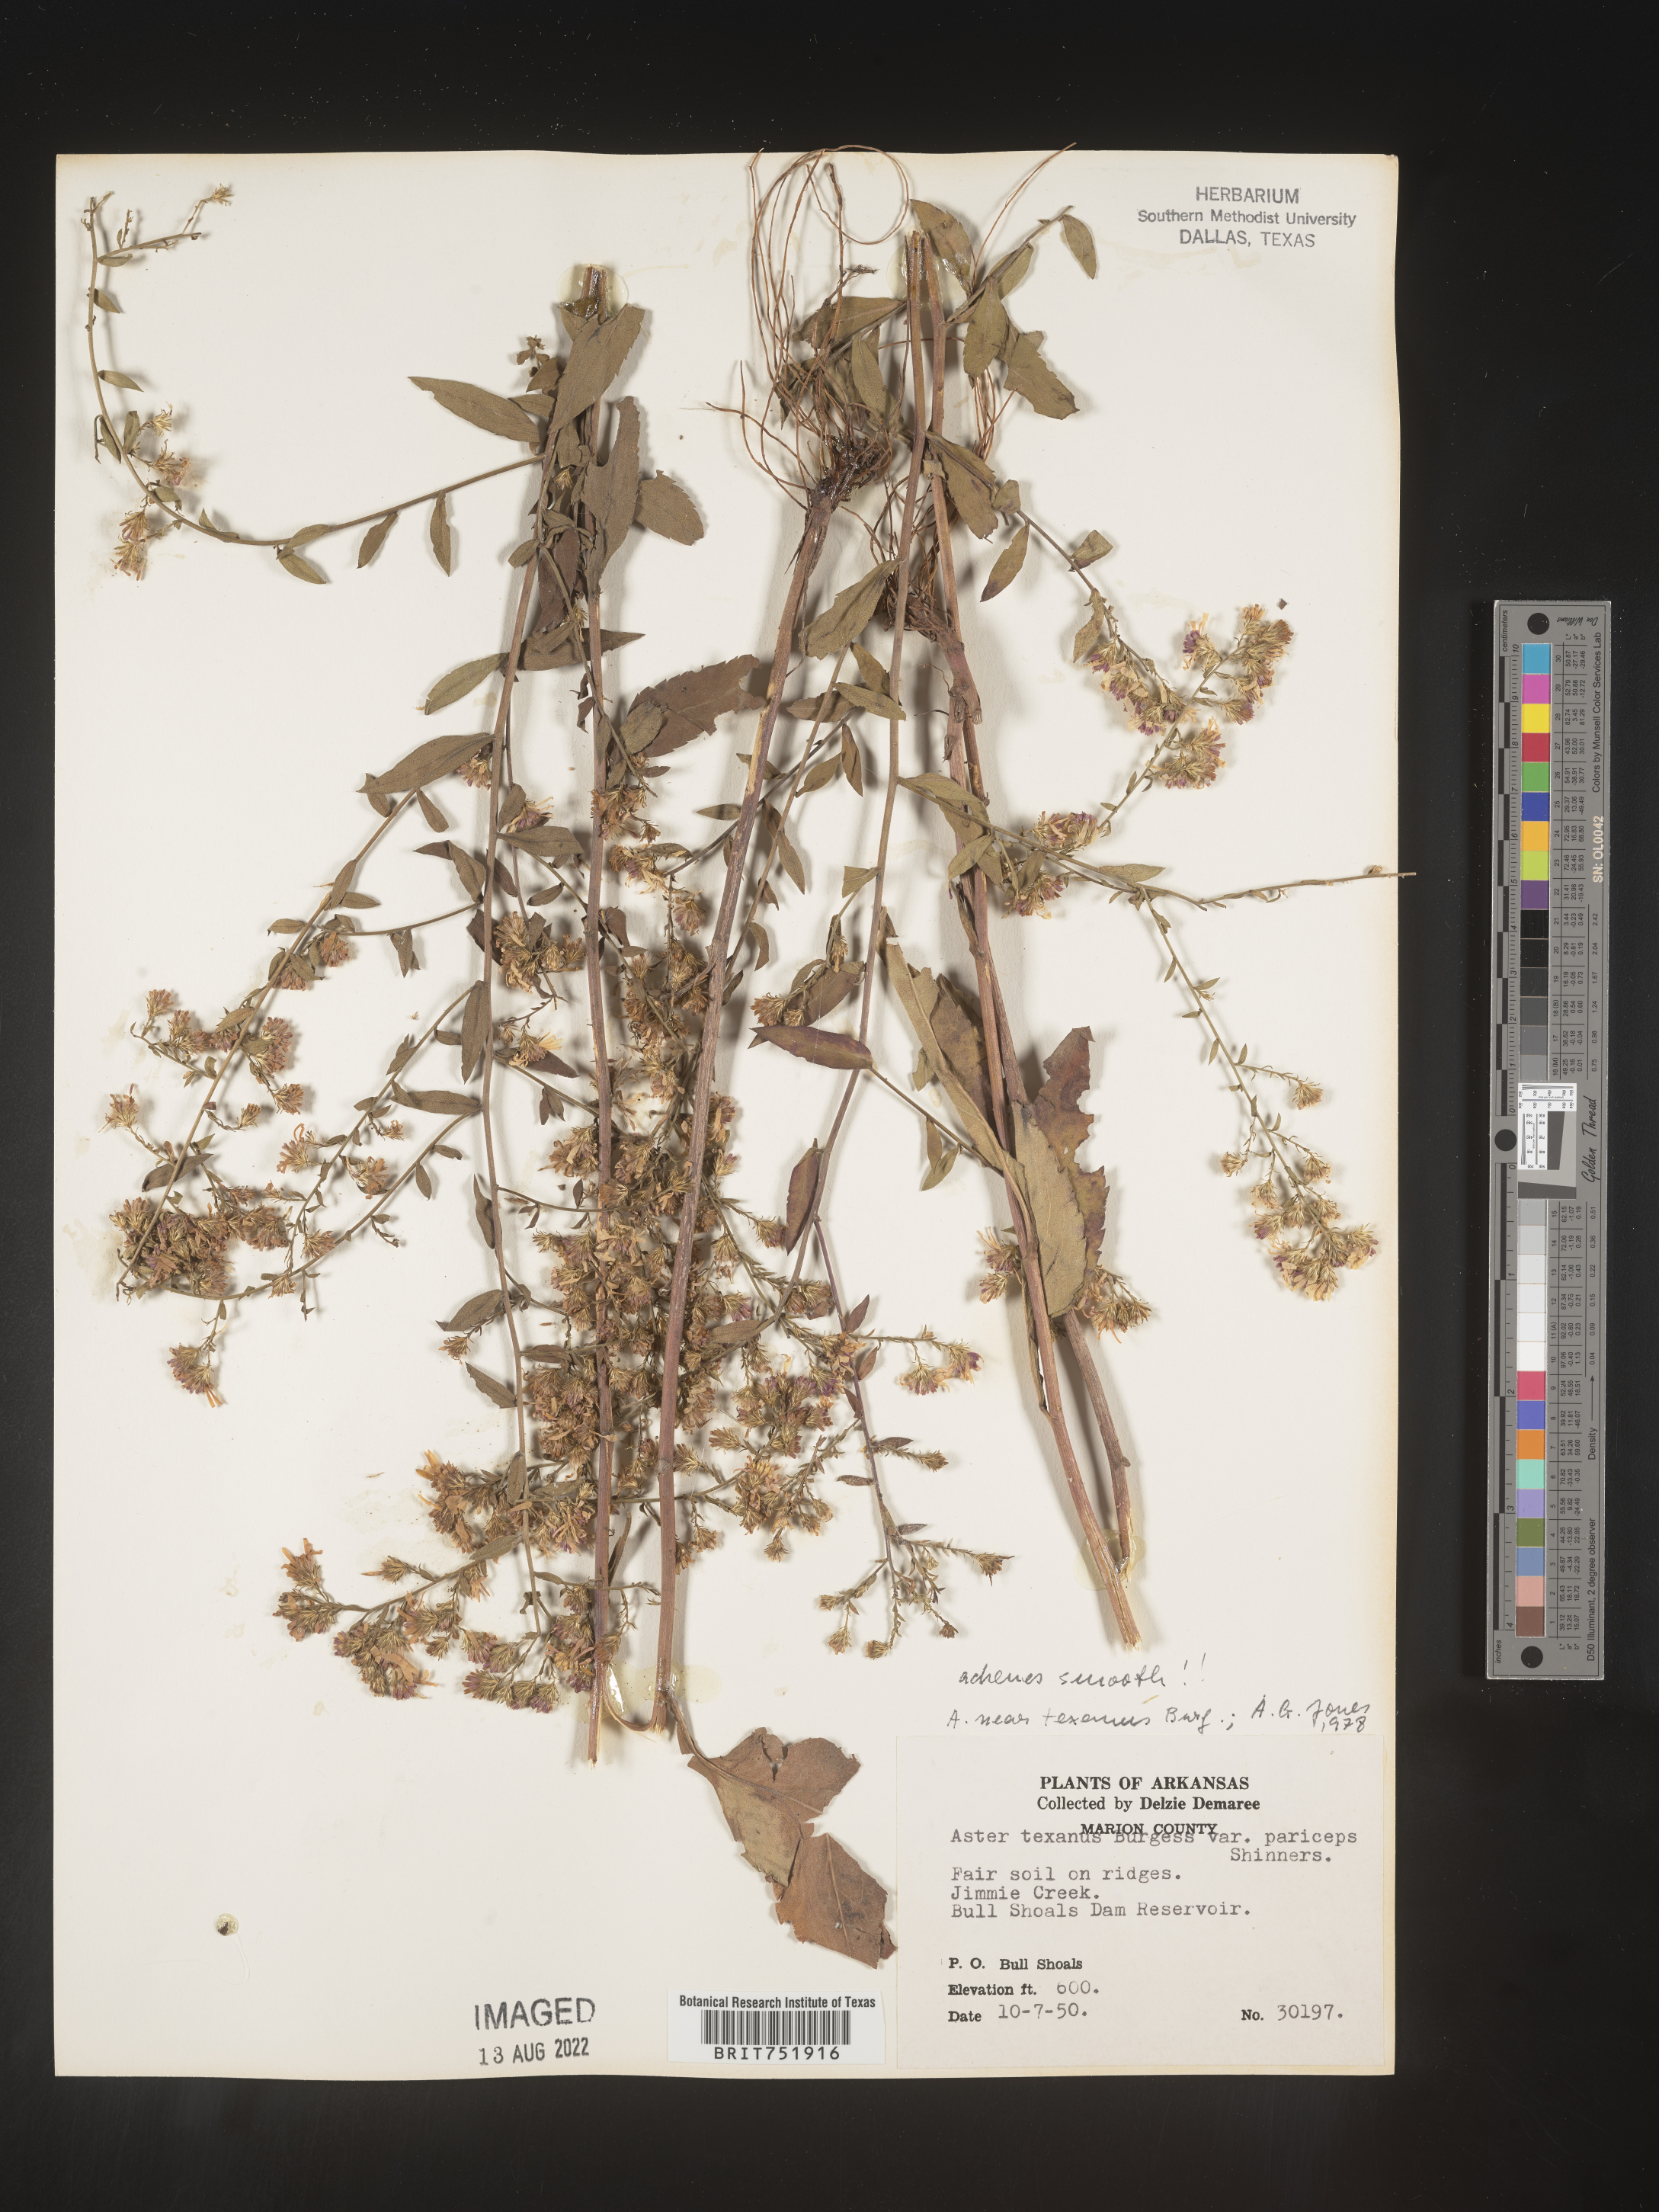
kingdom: Plantae
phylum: Tracheophyta
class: Magnoliopsida
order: Asterales
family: Asteraceae
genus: Symphyotrichum
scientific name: Symphyotrichum drummondii
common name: Drummond's aster
